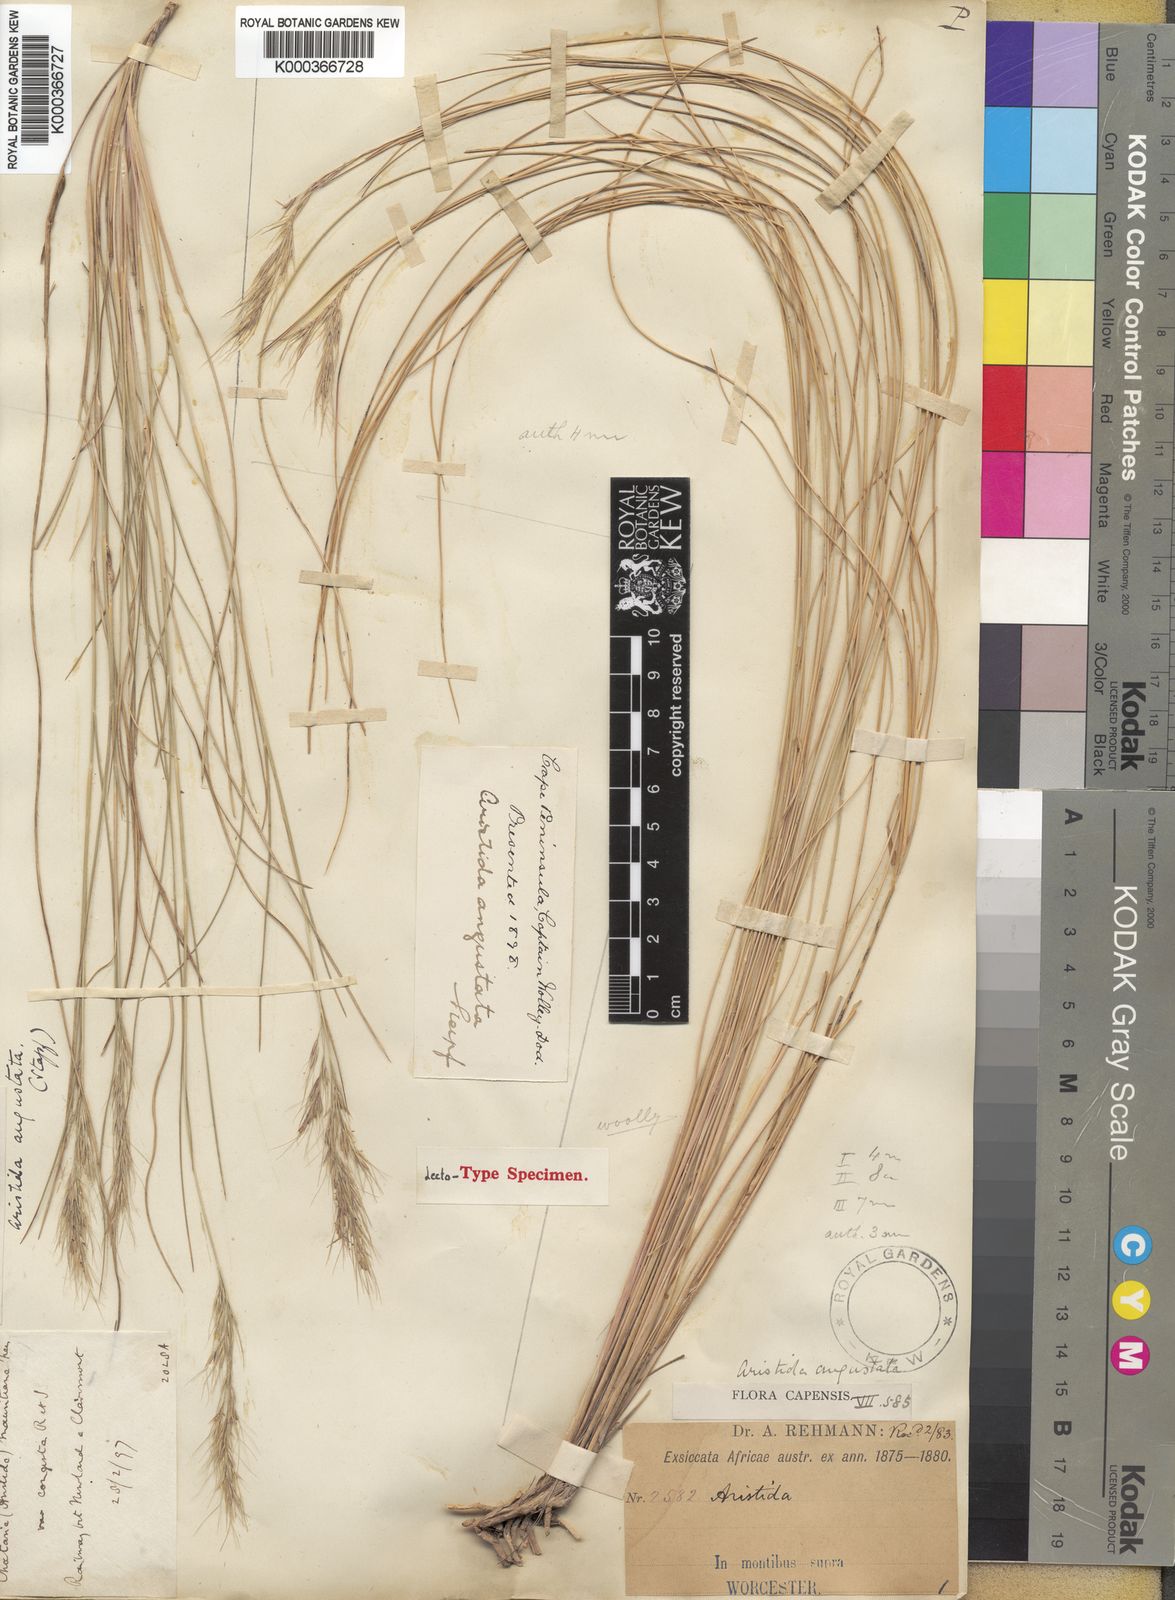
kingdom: Plantae
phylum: Tracheophyta
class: Liliopsida
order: Poales
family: Poaceae
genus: Aristida
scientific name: Aristida junciformis
